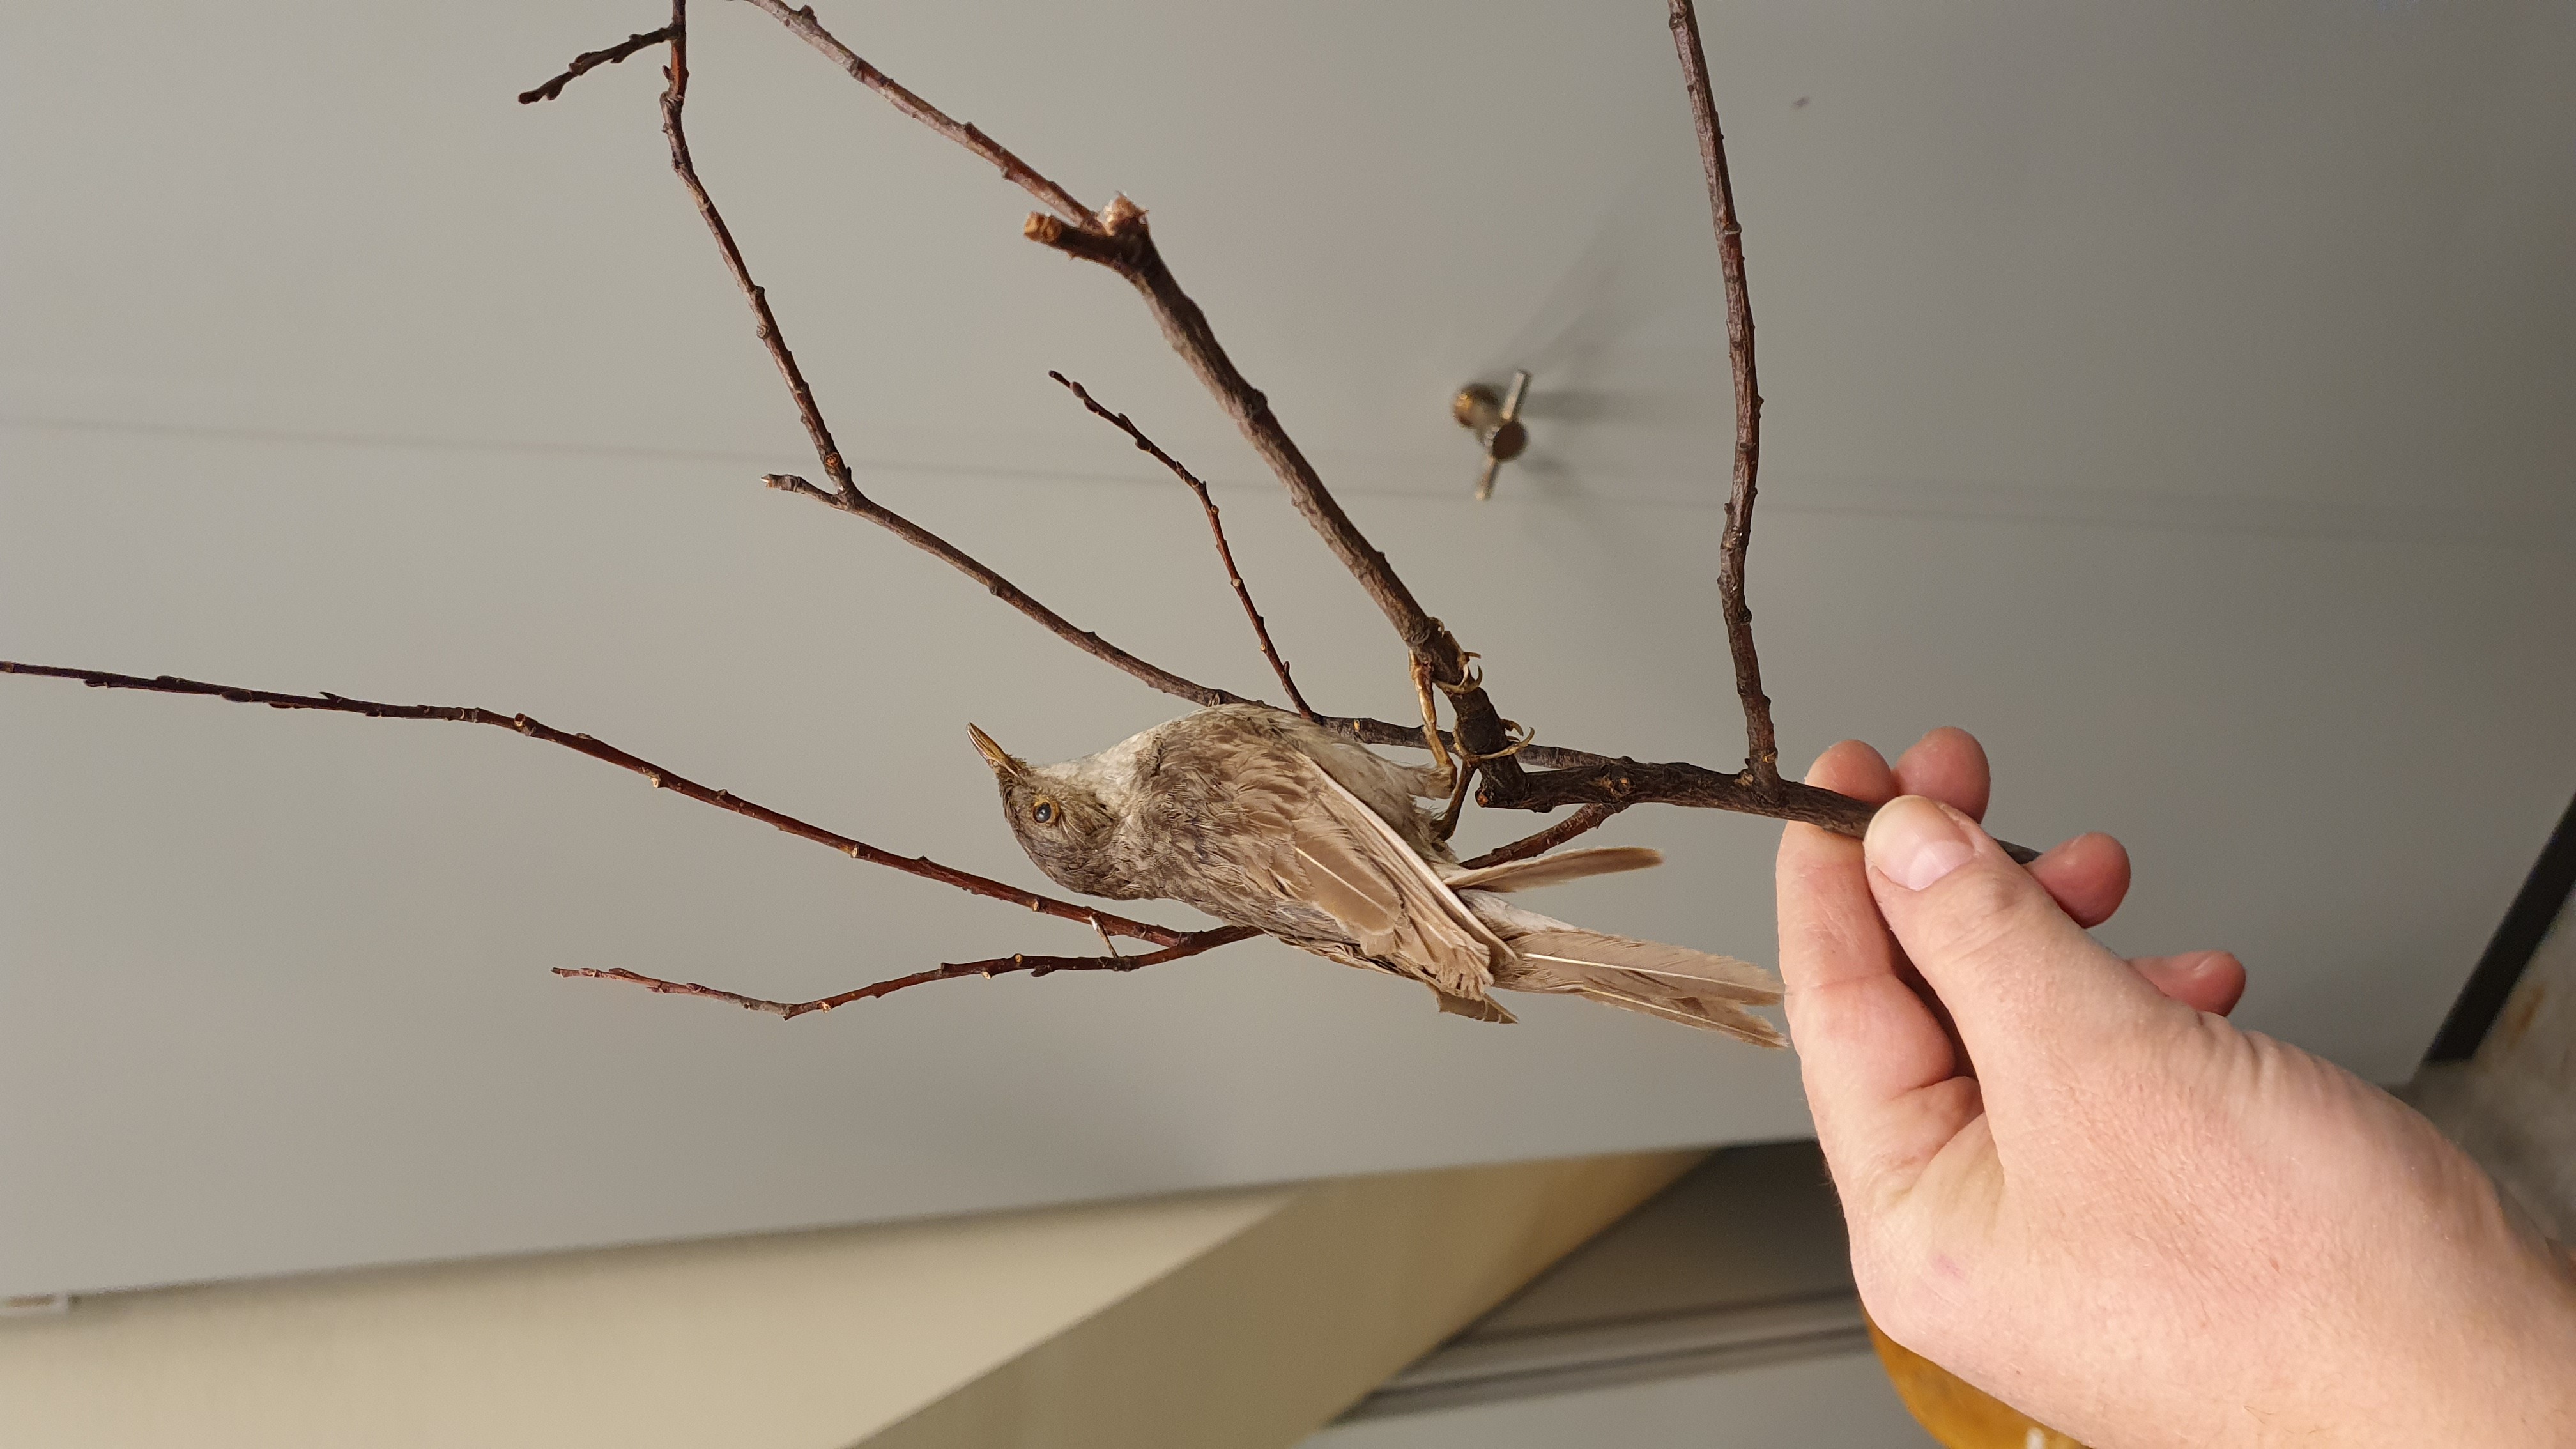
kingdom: Animalia
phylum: Chordata
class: Aves
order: Passeriformes
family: Locustellidae
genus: Locustella
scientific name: Locustella naevia
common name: Common grasshopper warbler
